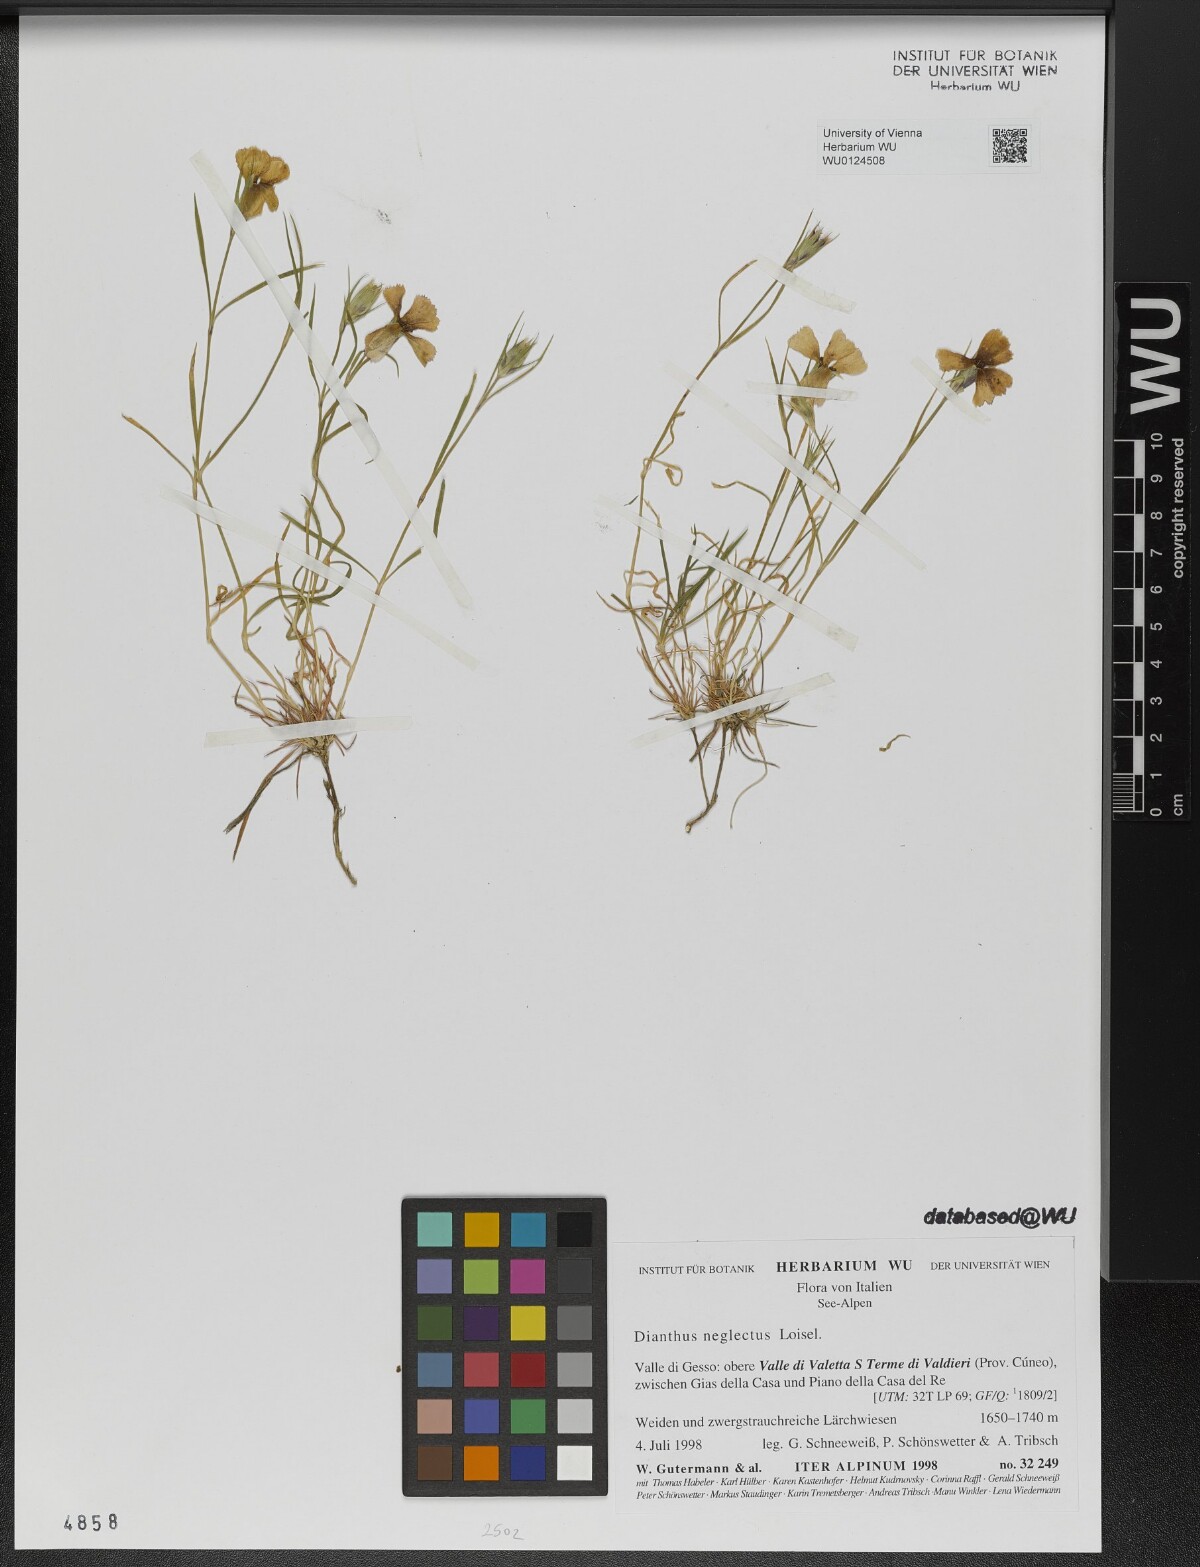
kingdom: Plantae
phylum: Tracheophyta
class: Magnoliopsida
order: Caryophyllales
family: Caryophyllaceae
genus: Dianthus
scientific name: Dianthus seguieri
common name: Ragged pink
